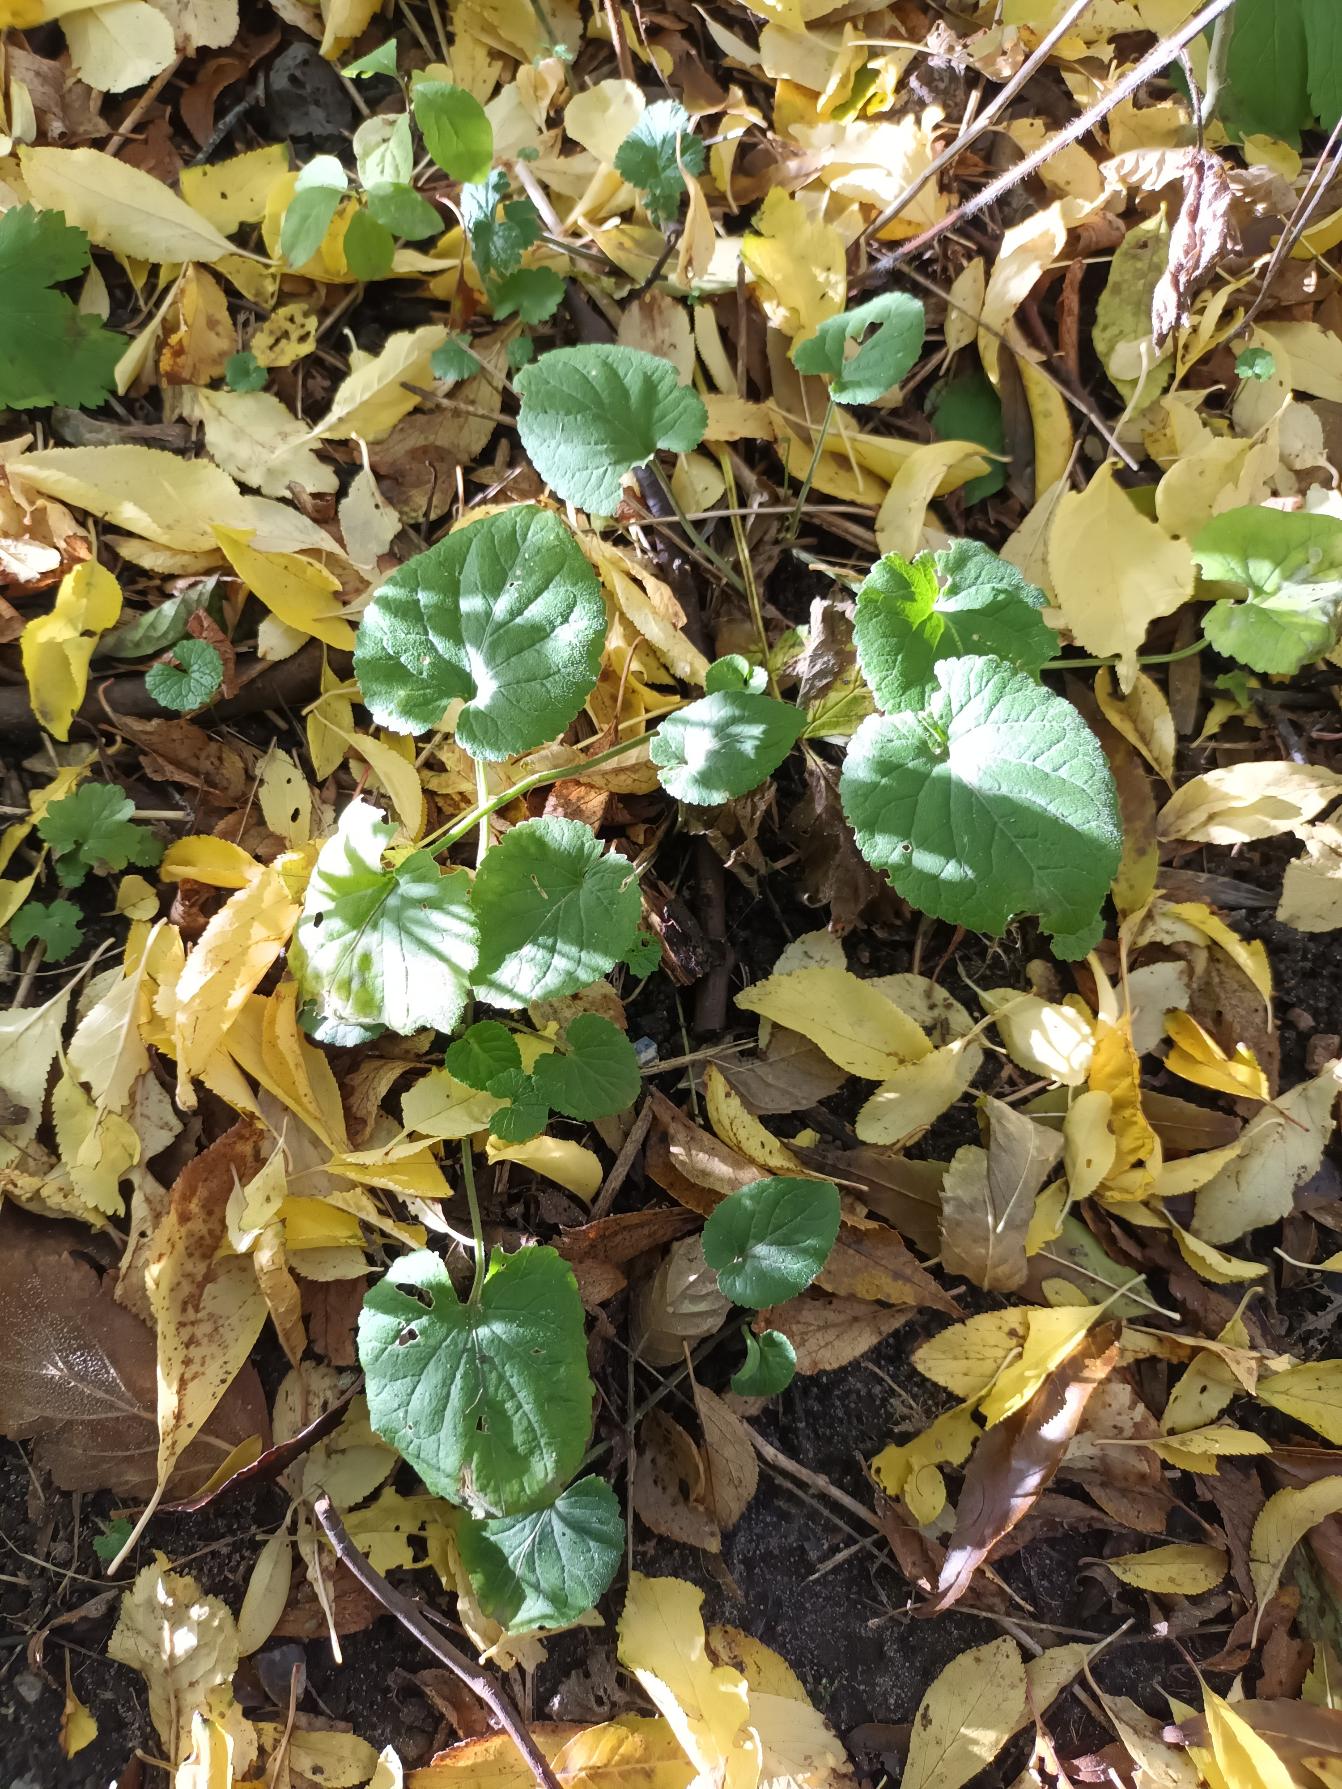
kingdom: Plantae
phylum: Tracheophyta
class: Magnoliopsida
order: Malpighiales
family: Violaceae
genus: Viola
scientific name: Viola odorata
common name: Marts-viol
